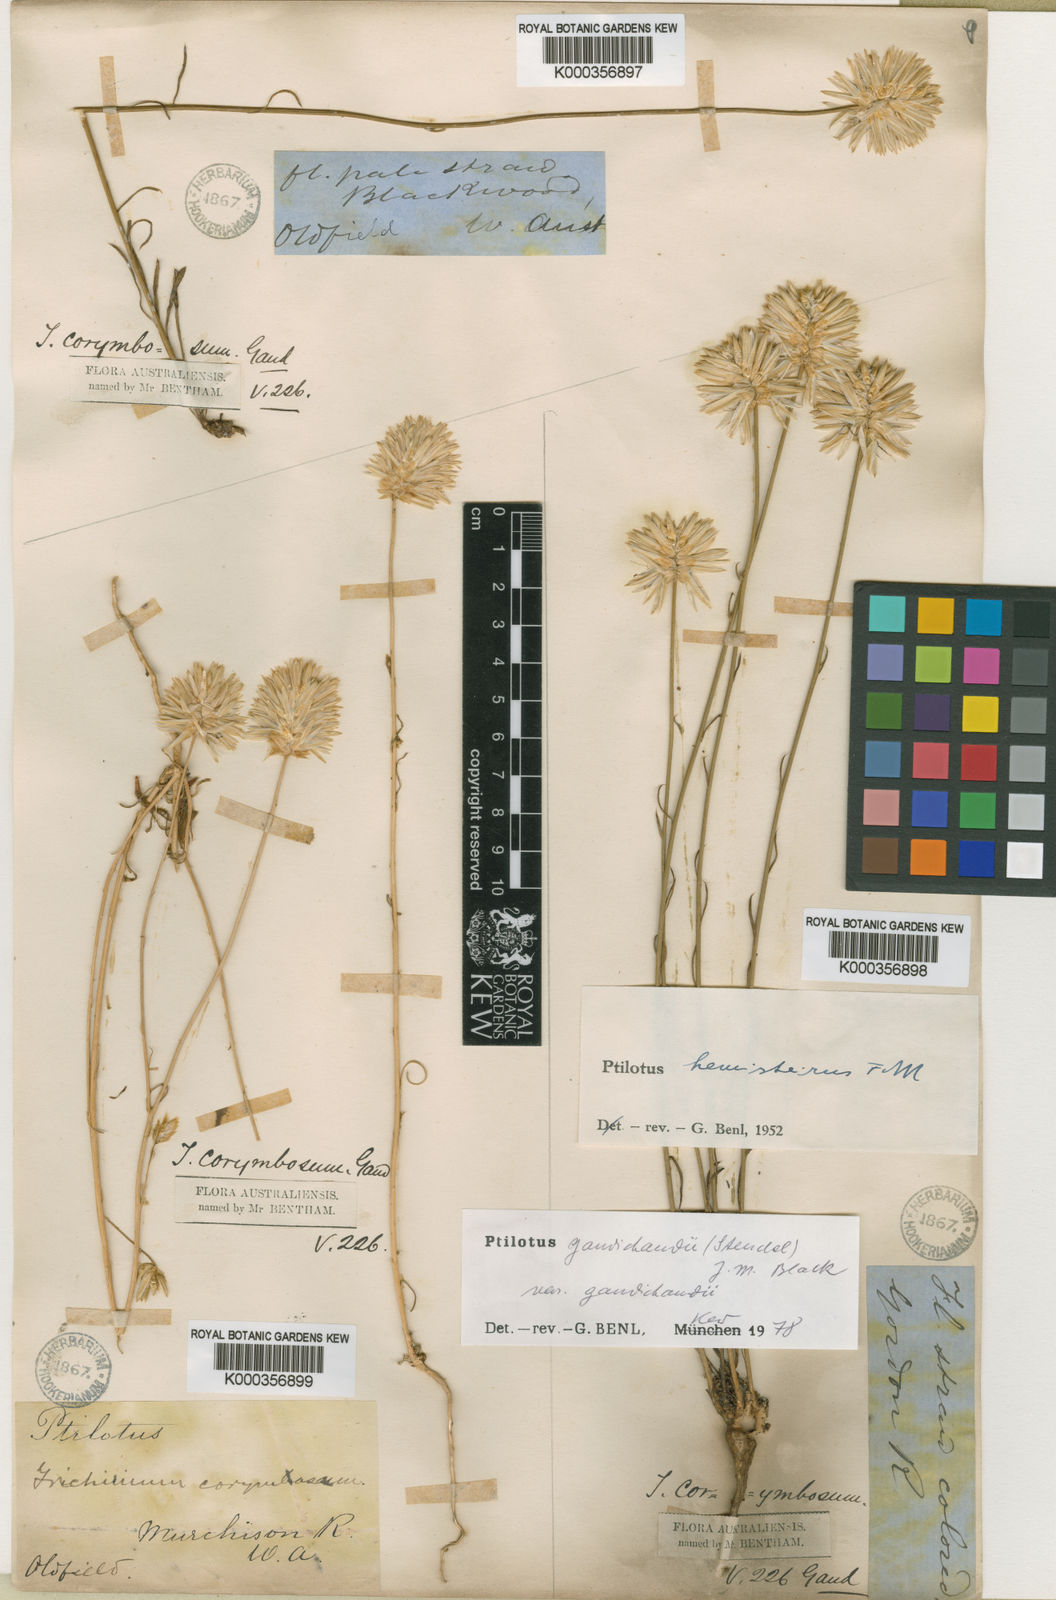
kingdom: Plantae
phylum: Tracheophyta
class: Magnoliopsida
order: Caryophyllales
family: Amaranthaceae
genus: Ptilotus
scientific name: Ptilotus
